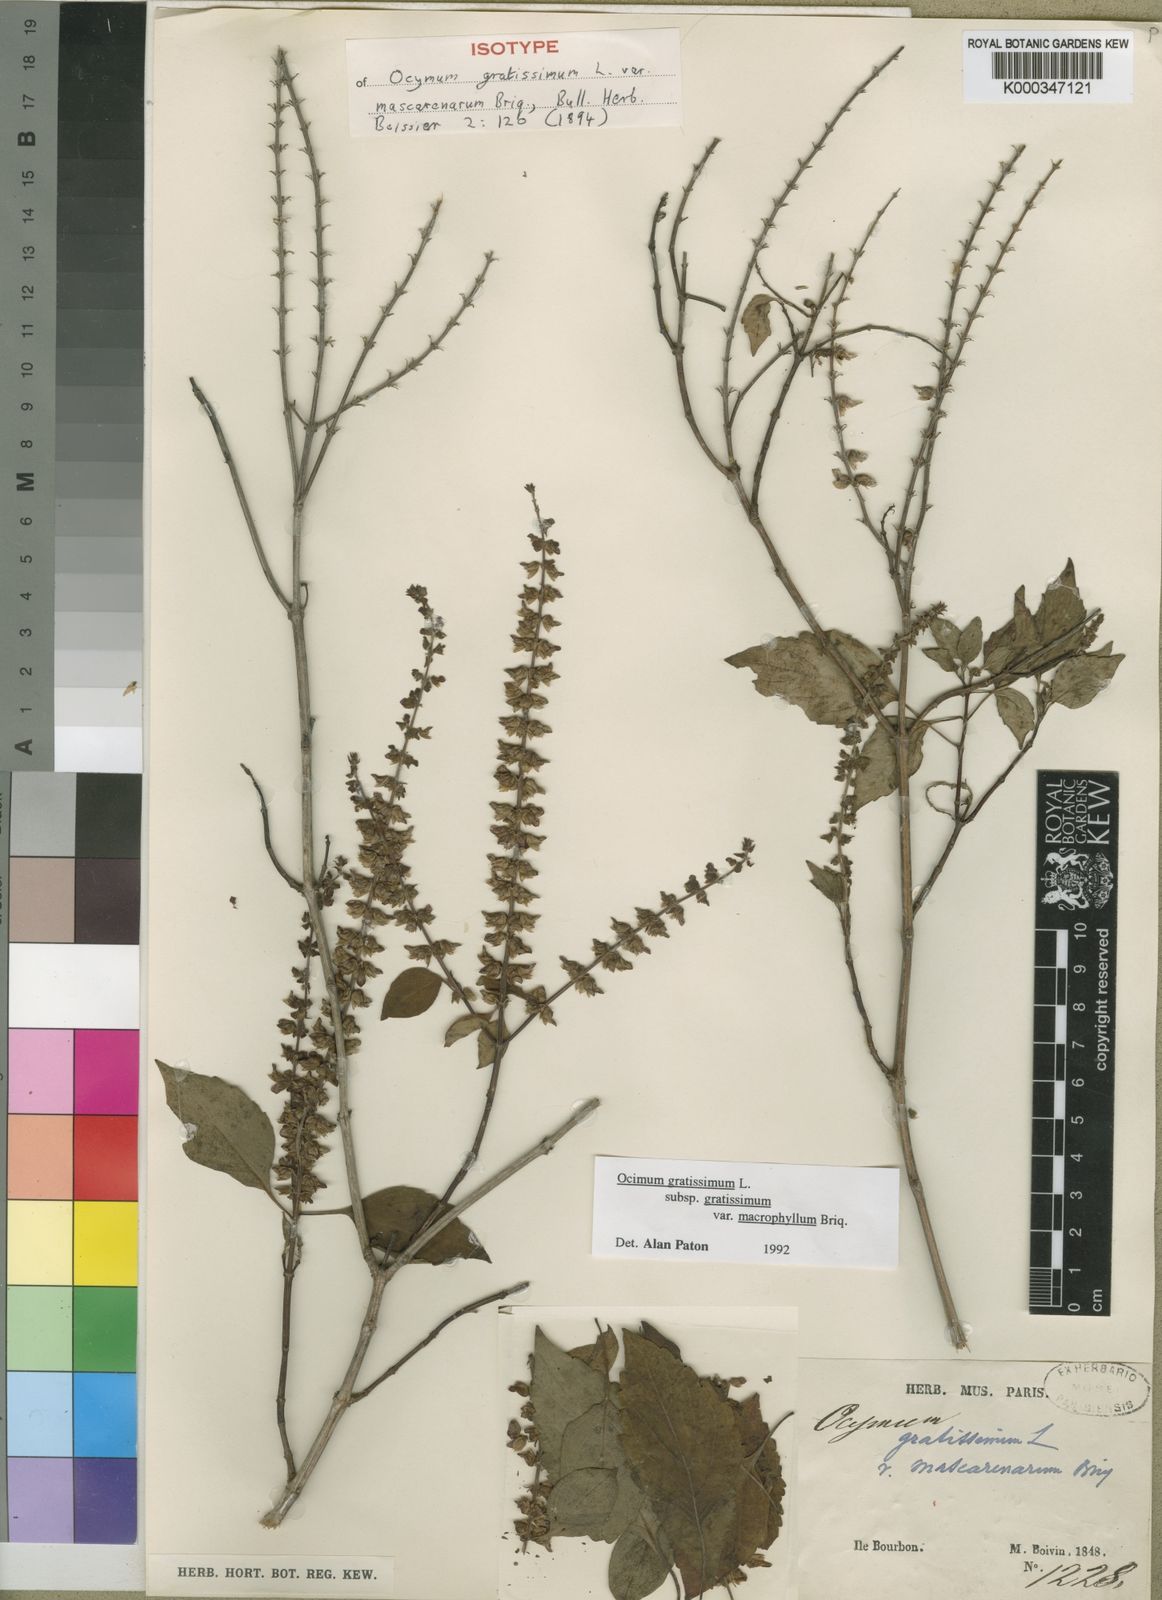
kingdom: Plantae
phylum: Tracheophyta
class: Magnoliopsida
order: Lamiales
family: Lamiaceae
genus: Ocimum
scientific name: Ocimum gratissimum
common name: African basil
